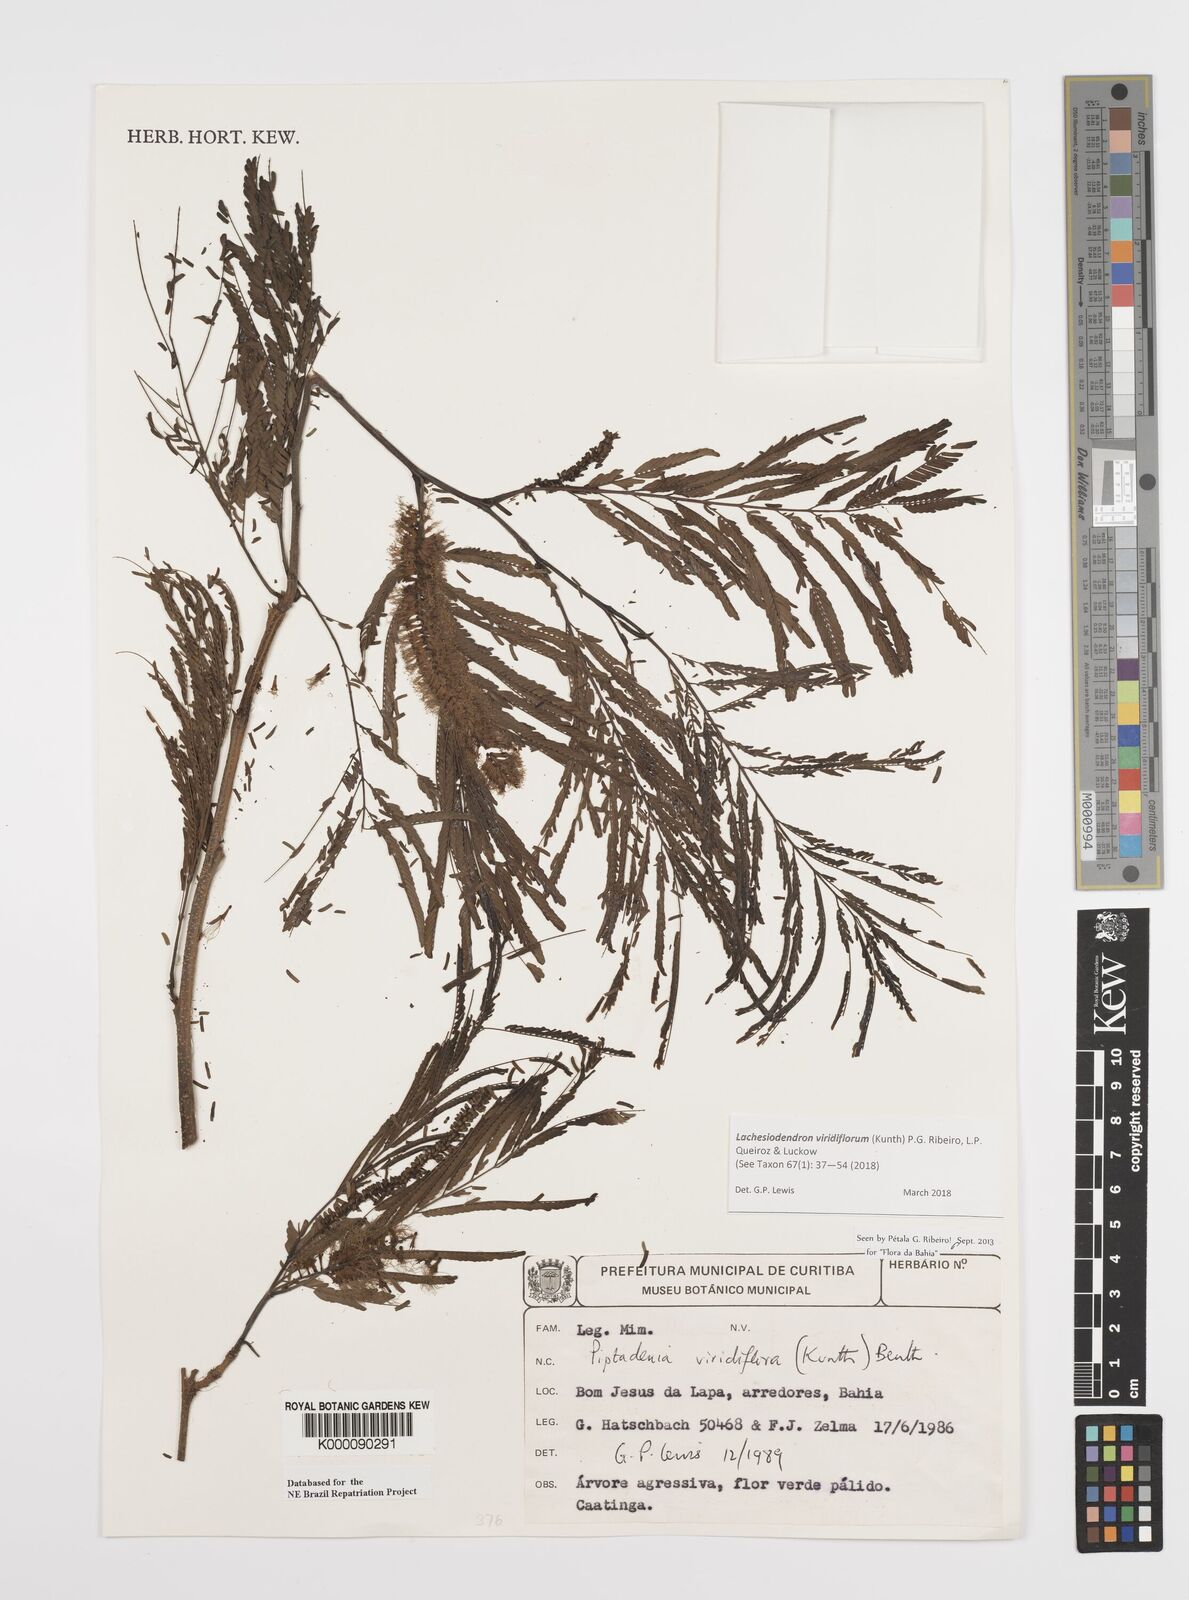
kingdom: Plantae
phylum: Tracheophyta
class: Magnoliopsida
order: Fabales
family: Fabaceae
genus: Lachesiodendron
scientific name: Lachesiodendron viridiflorum
